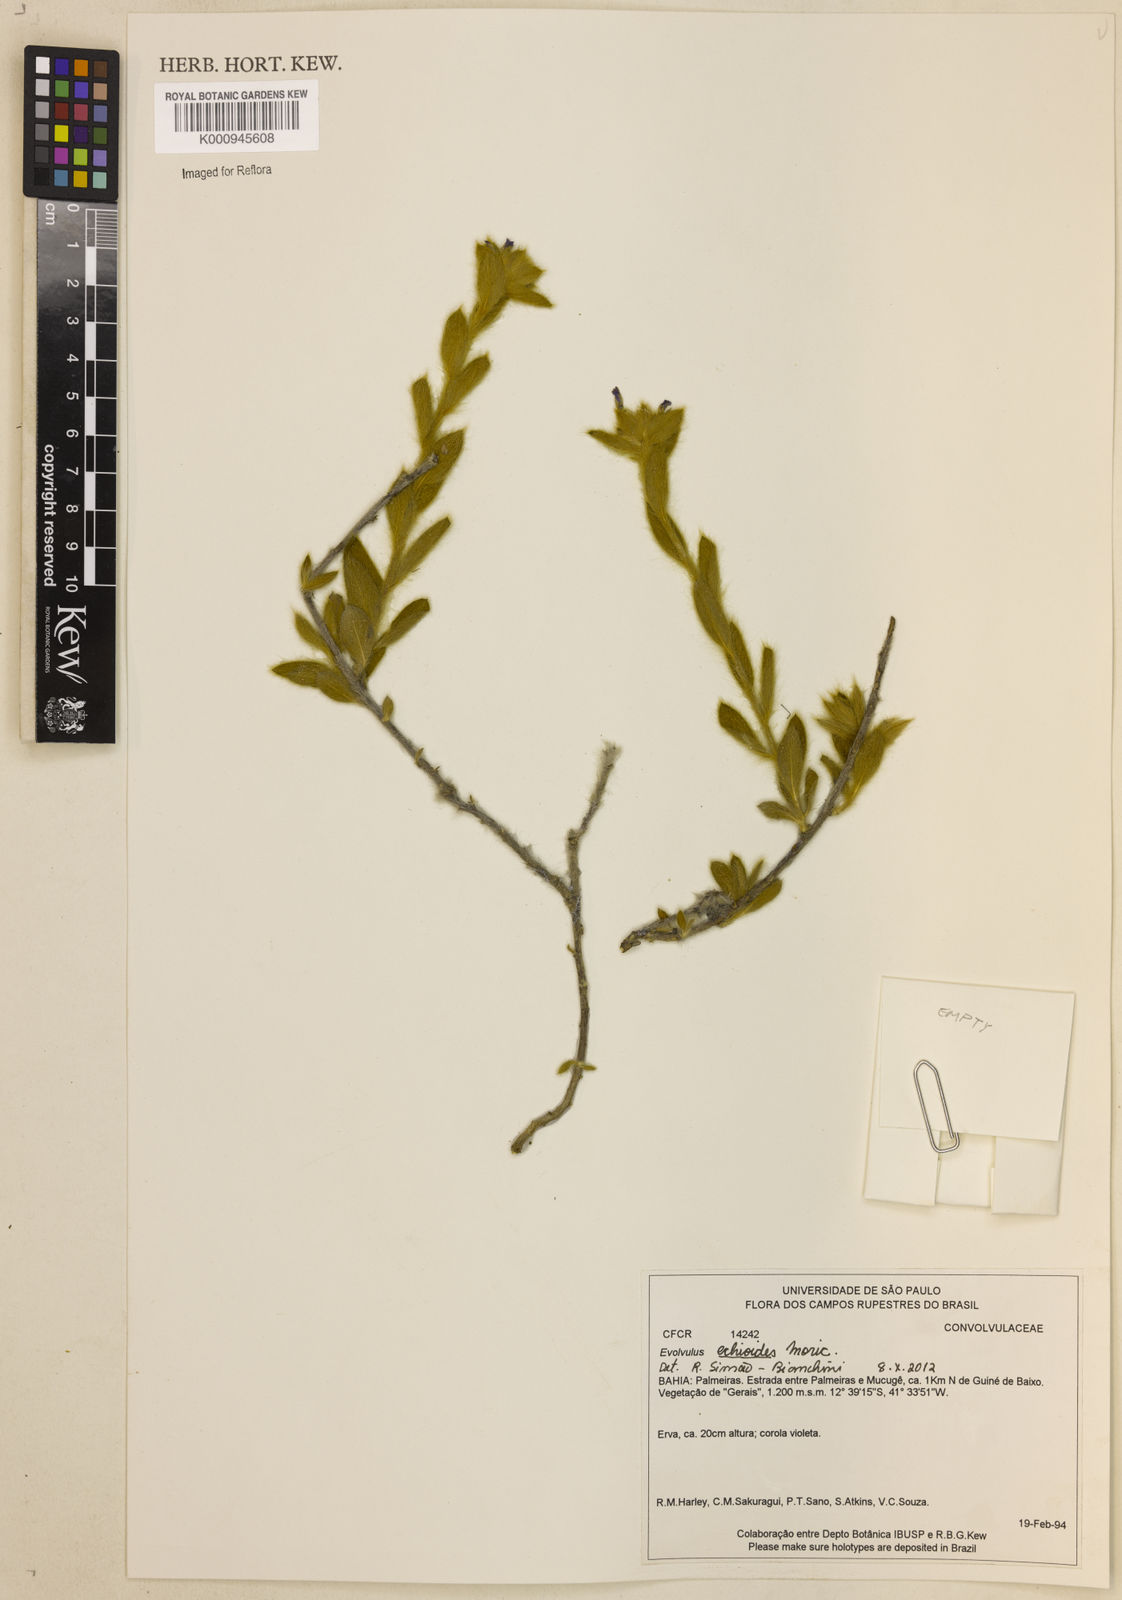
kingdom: Plantae
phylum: Tracheophyta
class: Magnoliopsida
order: Solanales
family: Convolvulaceae
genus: Evolvulus
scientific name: Evolvulus echioides
